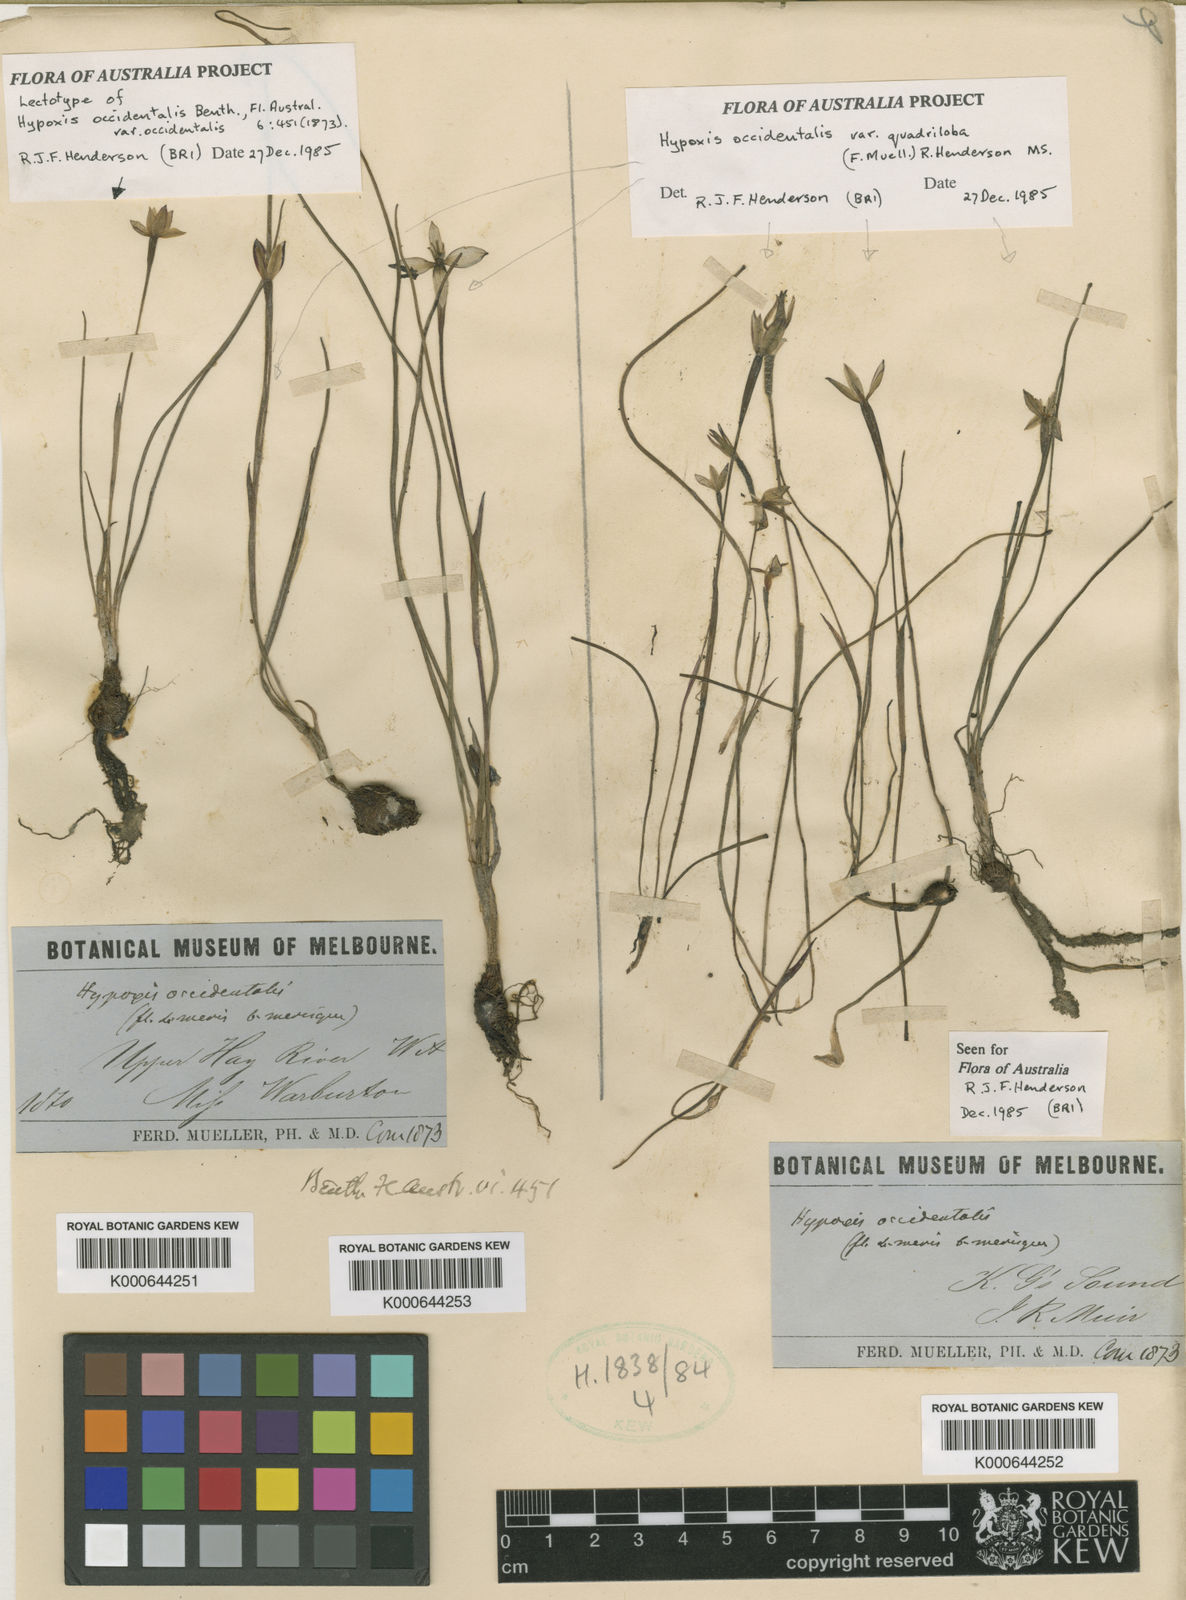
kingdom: Plantae
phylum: Tracheophyta
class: Liliopsida
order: Asparagales
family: Hypoxidaceae
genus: Pauridia
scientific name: Pauridia occidentalis
